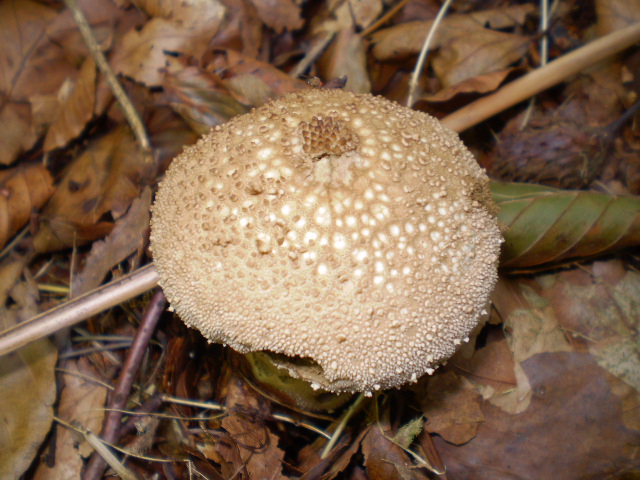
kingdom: Fungi
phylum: Basidiomycota
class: Agaricomycetes
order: Agaricales
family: Lycoperdaceae
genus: Lycoperdon
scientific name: Lycoperdon perlatum
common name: krystal-støvbold
